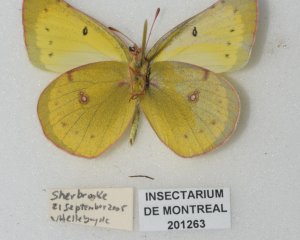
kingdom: Animalia
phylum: Arthropoda
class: Insecta
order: Lepidoptera
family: Pieridae
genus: Colias
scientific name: Colias philodice
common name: Clouded Sulphur
